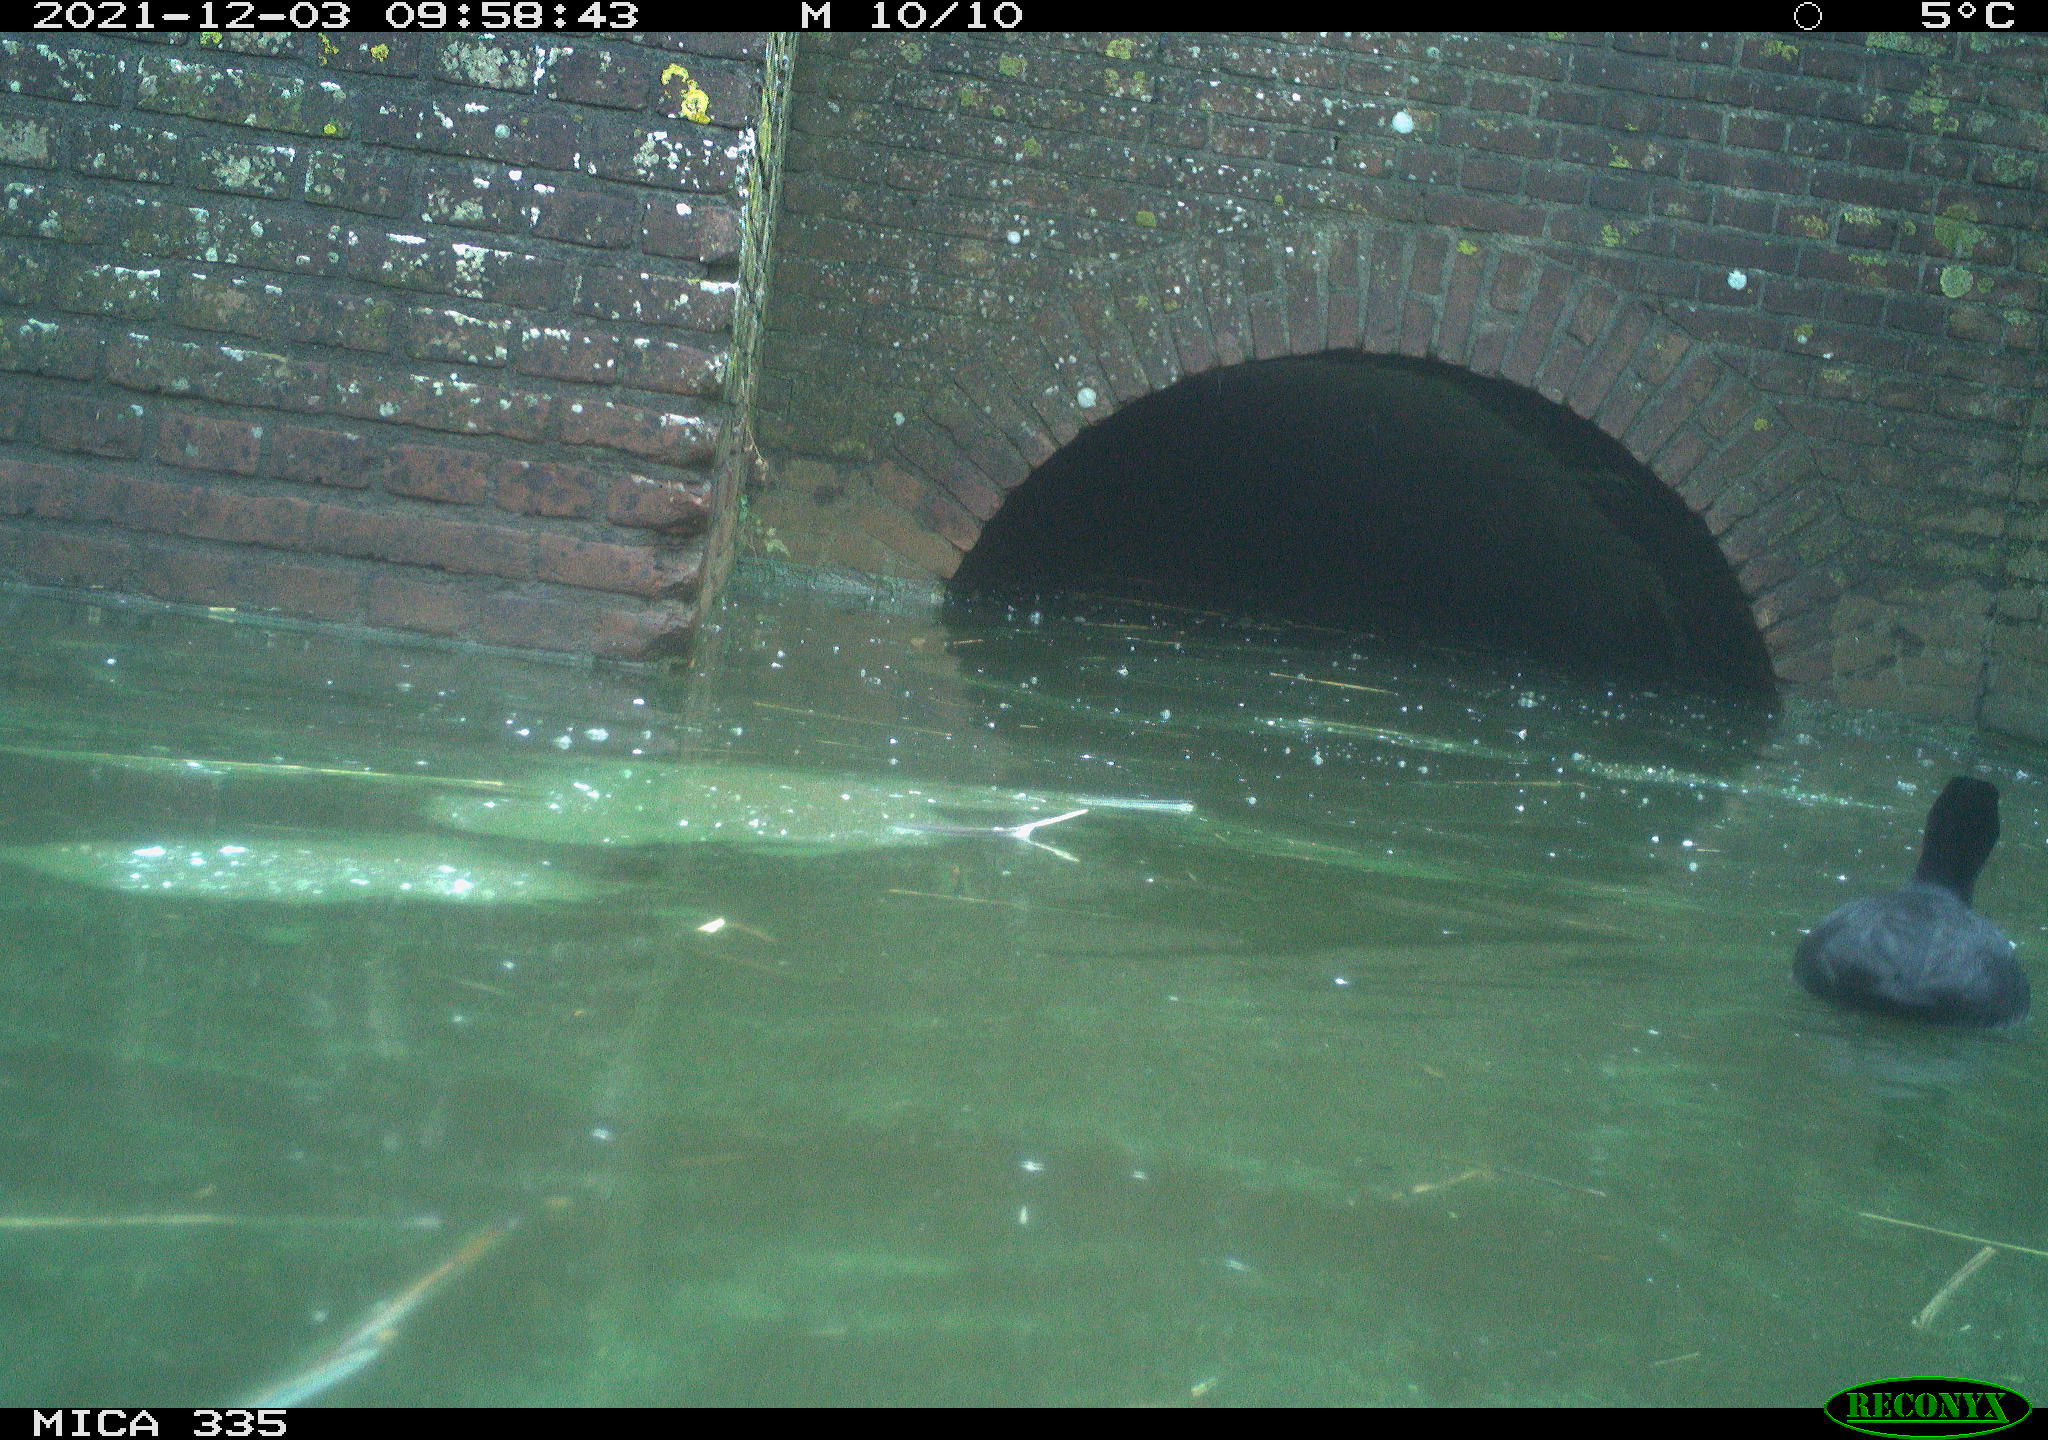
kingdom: Animalia
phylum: Chordata
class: Aves
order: Anseriformes
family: Anatidae
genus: Anas
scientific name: Anas platyrhynchos
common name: Mallard
